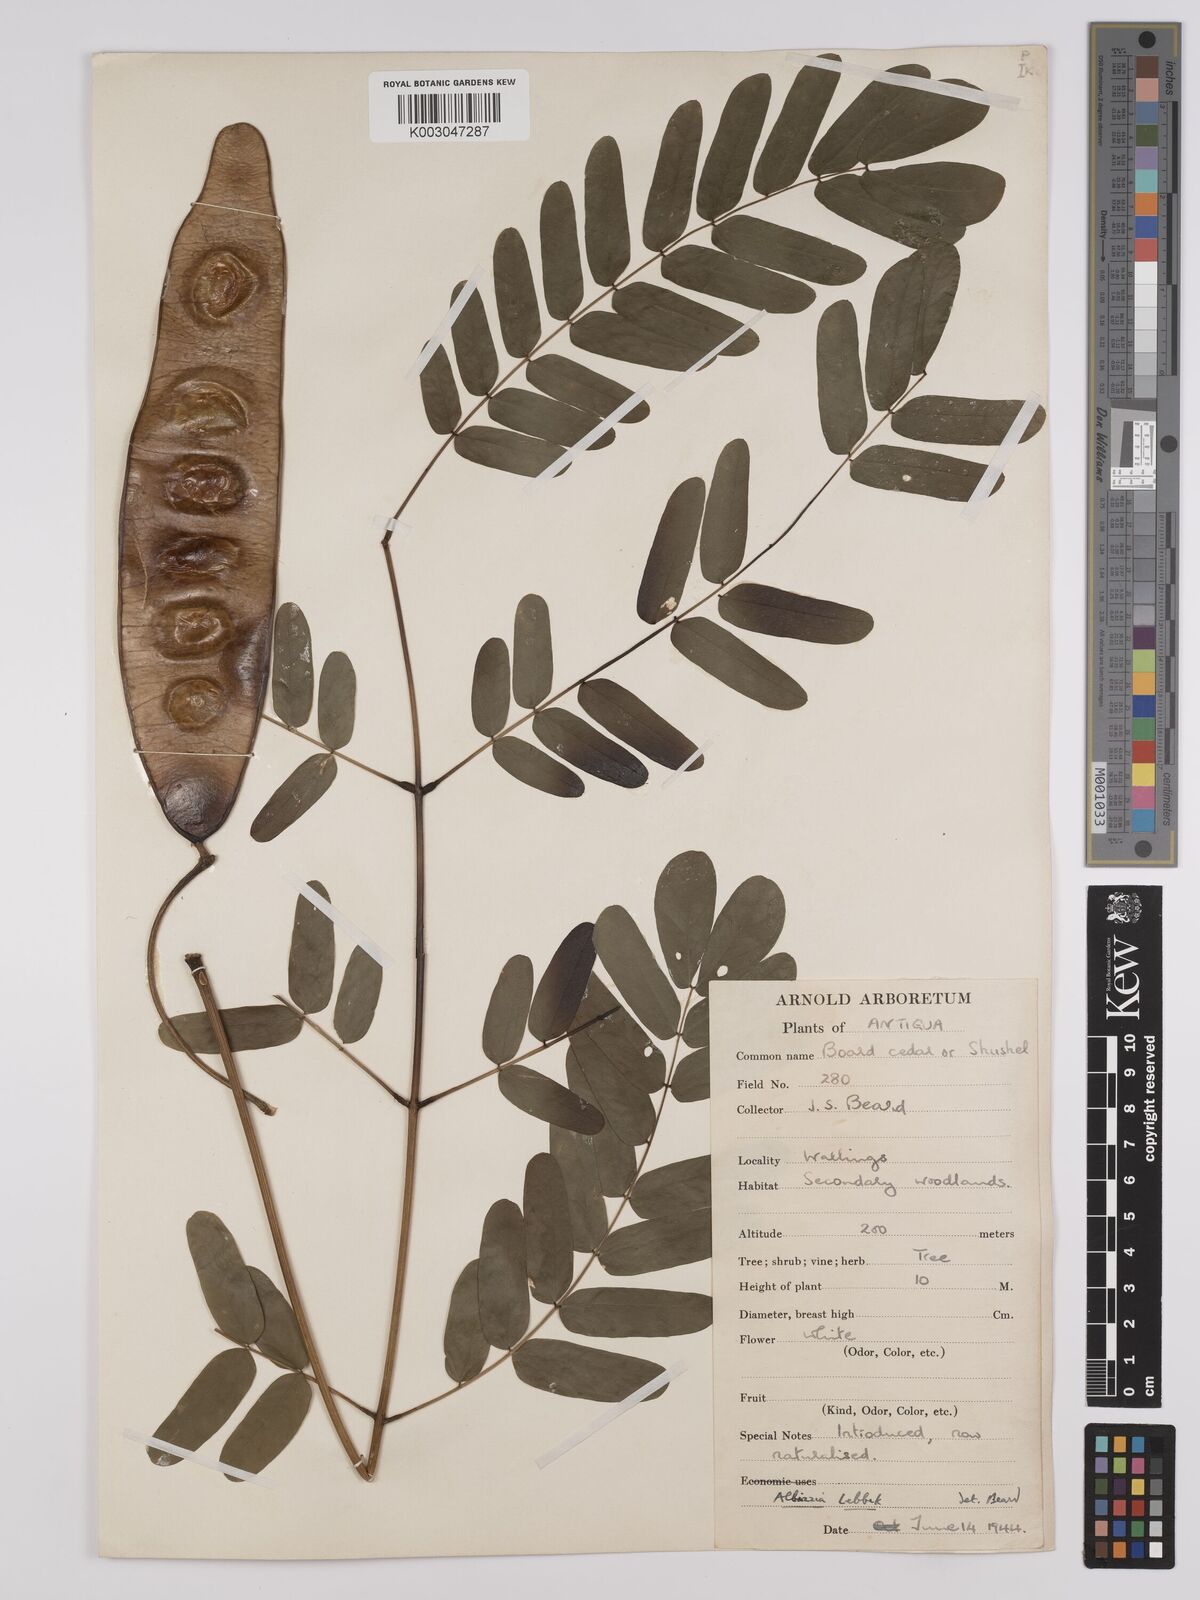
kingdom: Plantae
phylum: Tracheophyta
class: Magnoliopsida
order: Fabales
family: Fabaceae
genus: Albizia
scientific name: Albizia lebbeck
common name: Woman's tongue
